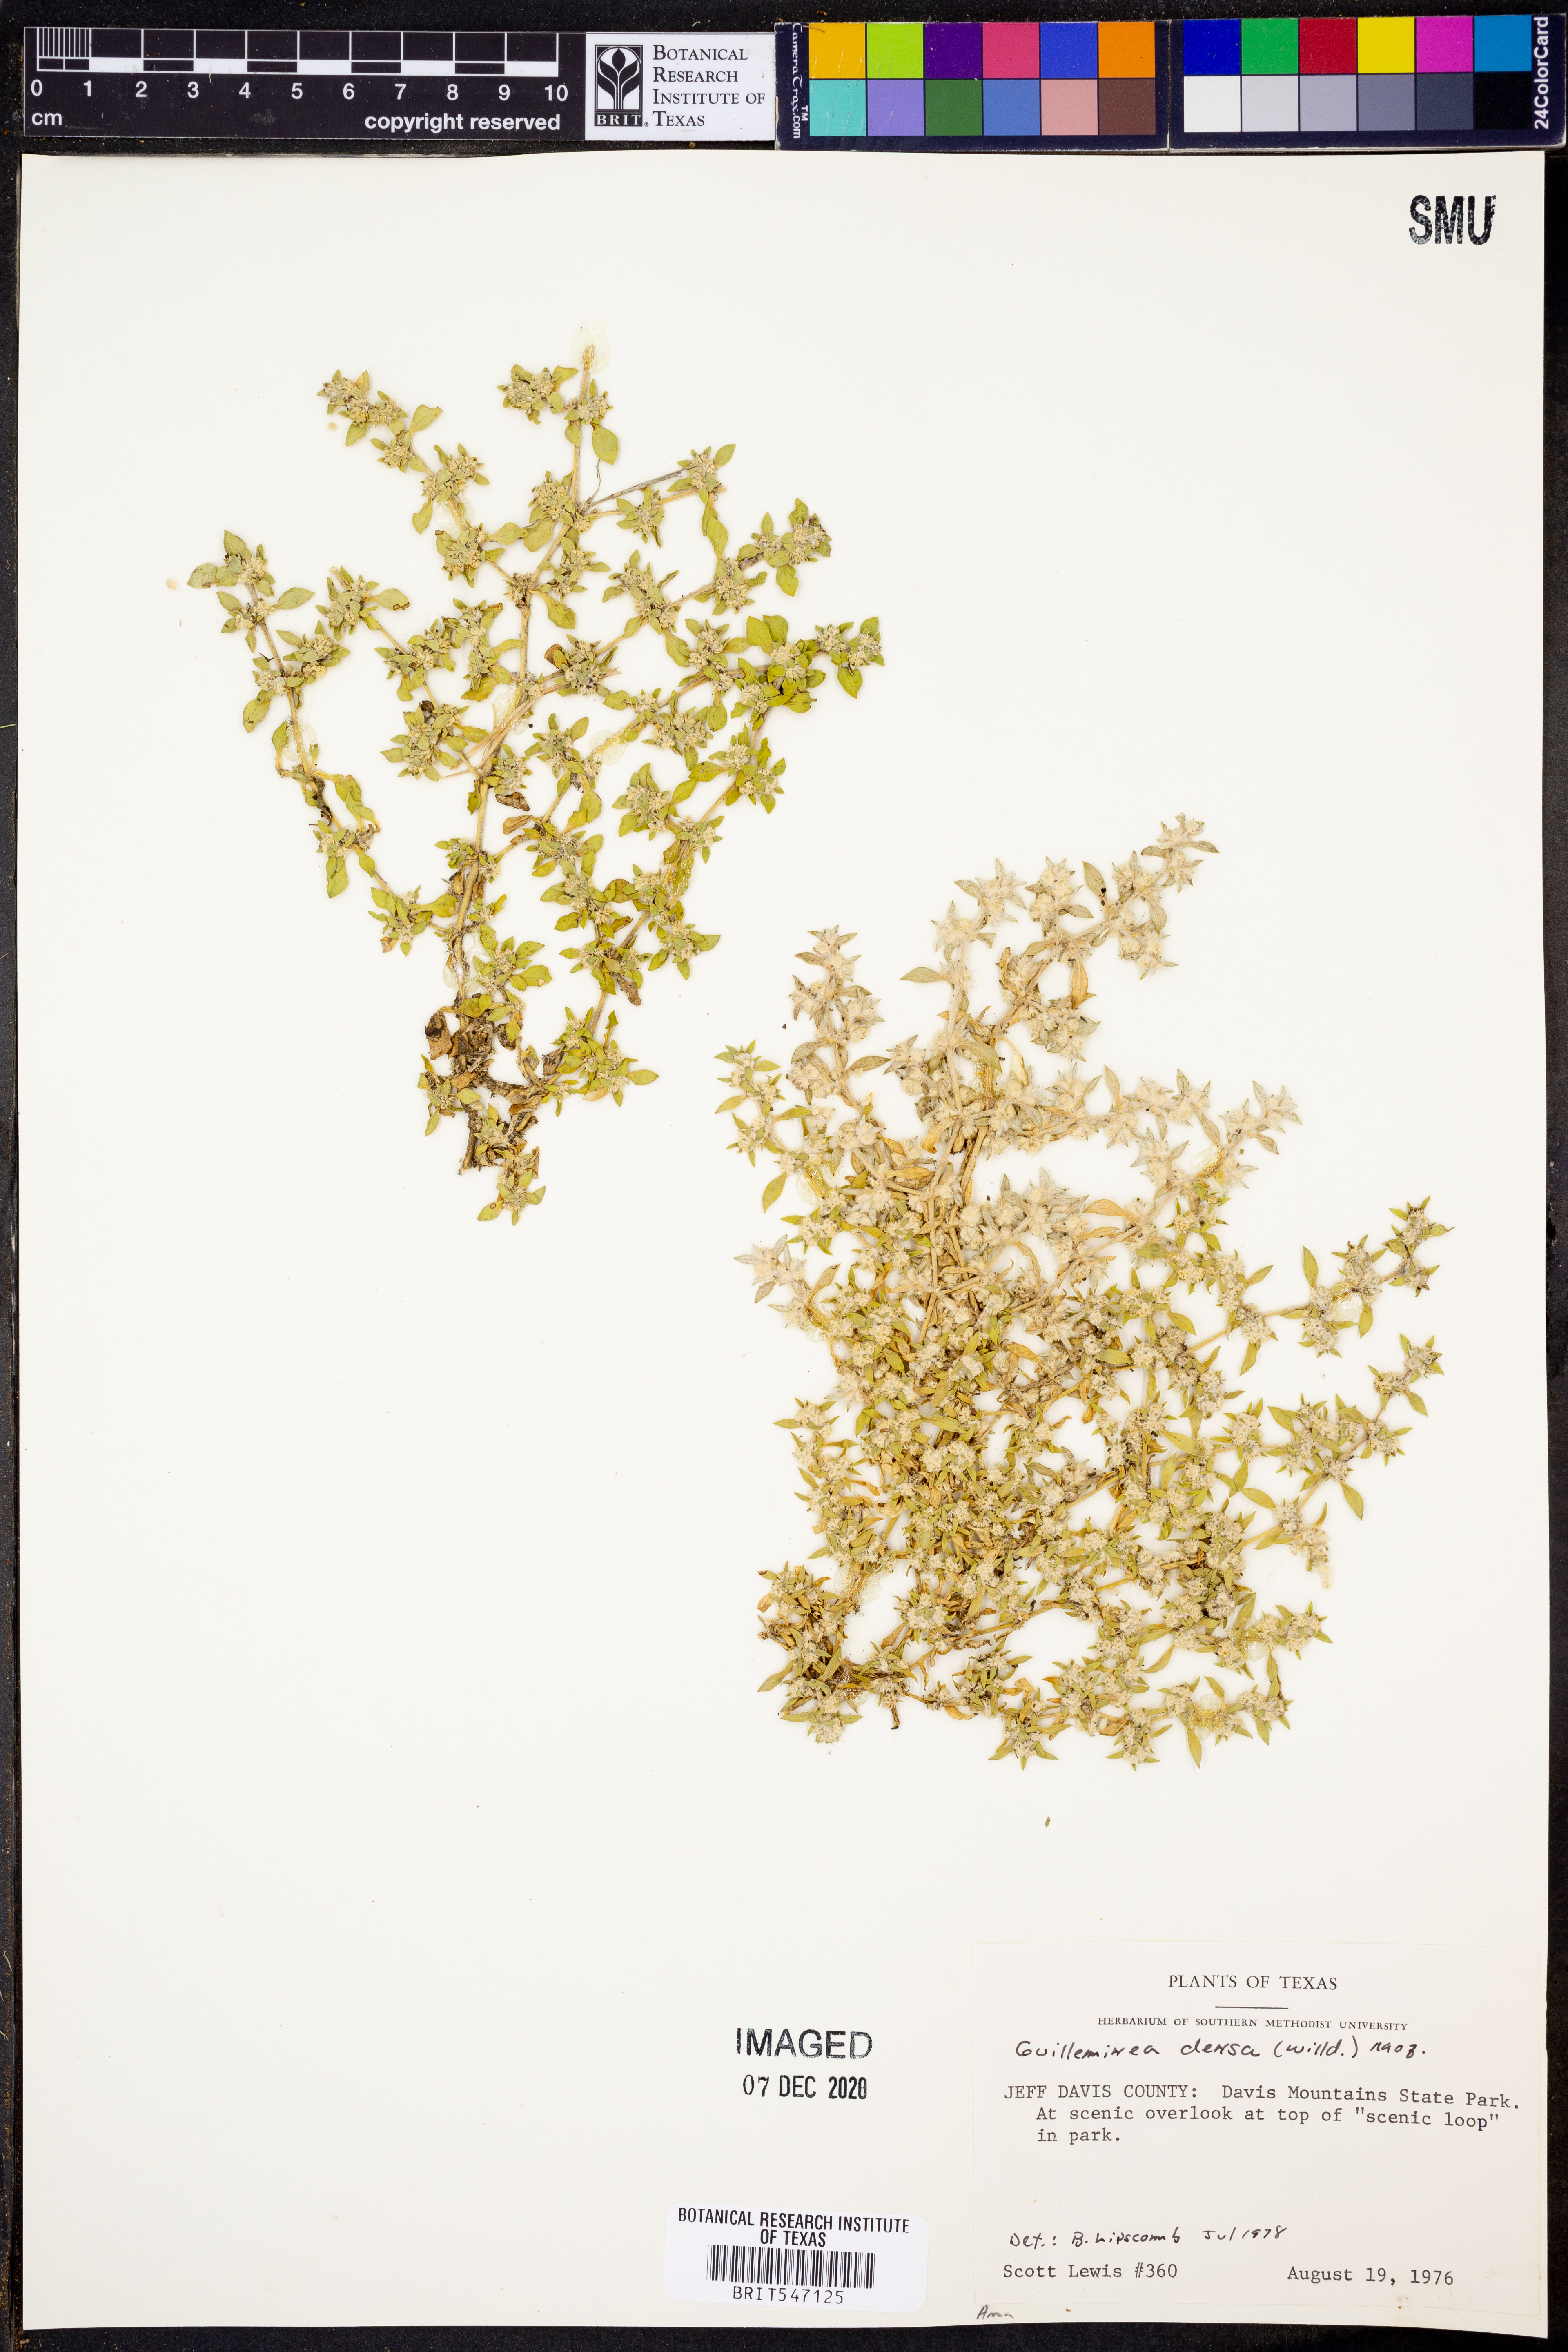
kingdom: Plantae
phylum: Tracheophyta
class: Magnoliopsida
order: Caryophyllales
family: Amaranthaceae
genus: Guilleminea
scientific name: Guilleminea densa
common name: Small matweed
